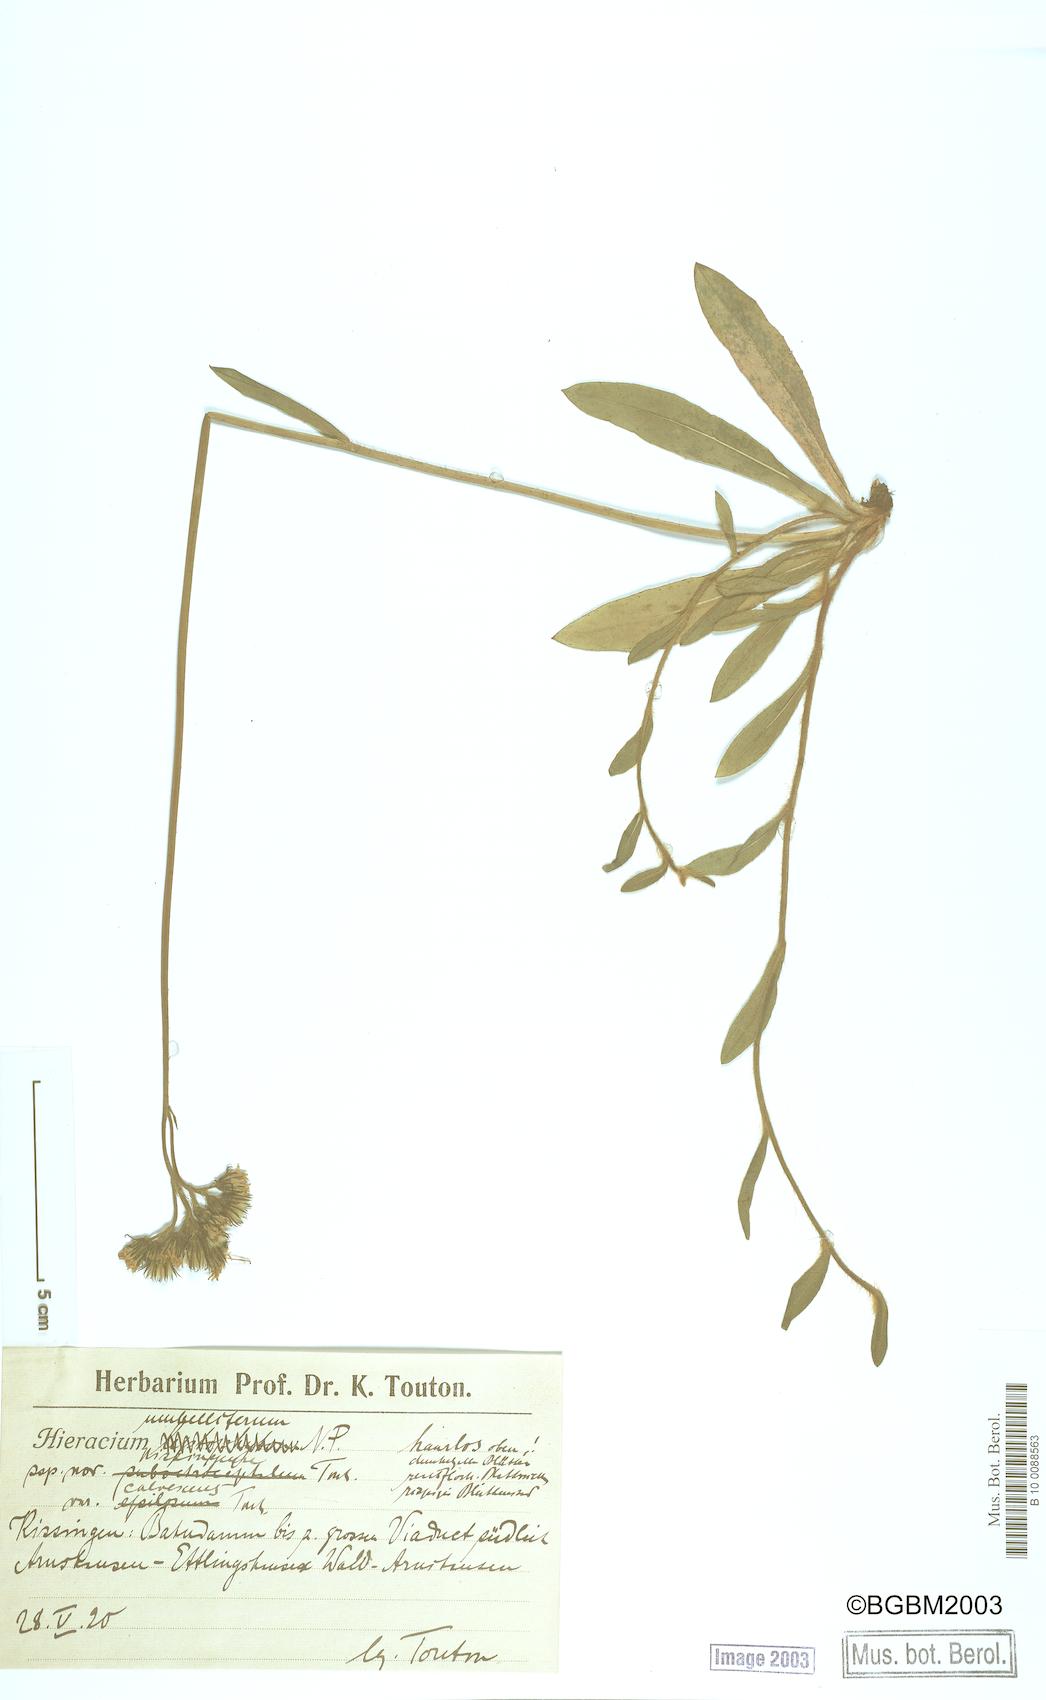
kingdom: Plantae
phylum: Tracheophyta
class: Magnoliopsida
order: Asterales
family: Asteraceae
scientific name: Asteraceae
